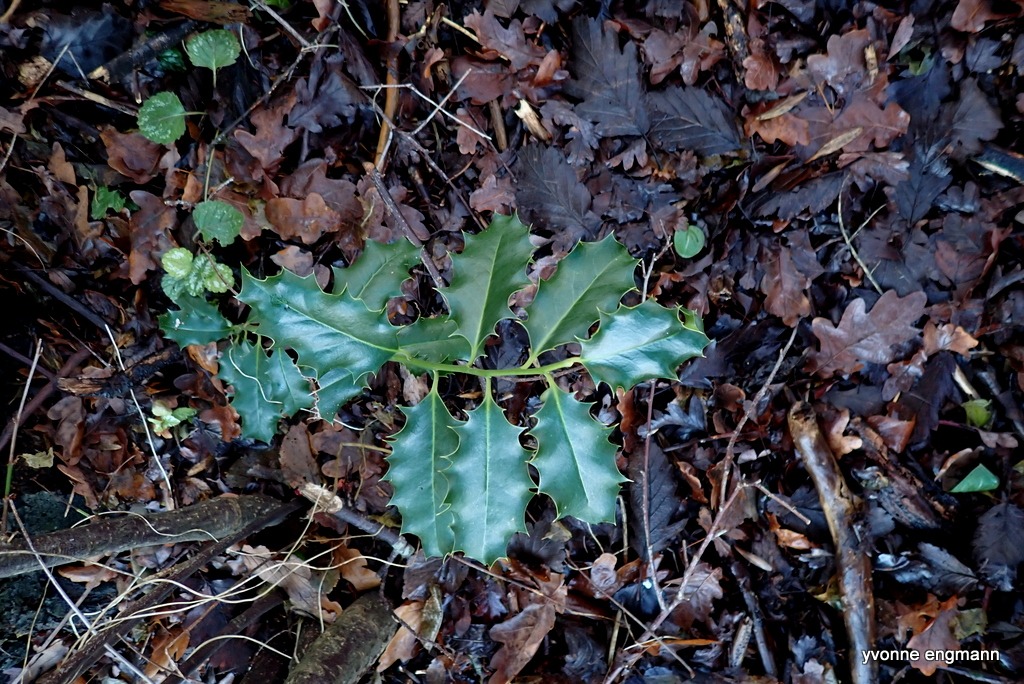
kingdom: Plantae
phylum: Tracheophyta
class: Magnoliopsida
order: Aquifoliales
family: Aquifoliaceae
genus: Ilex
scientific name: Ilex aquifolium
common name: Kristtorn
